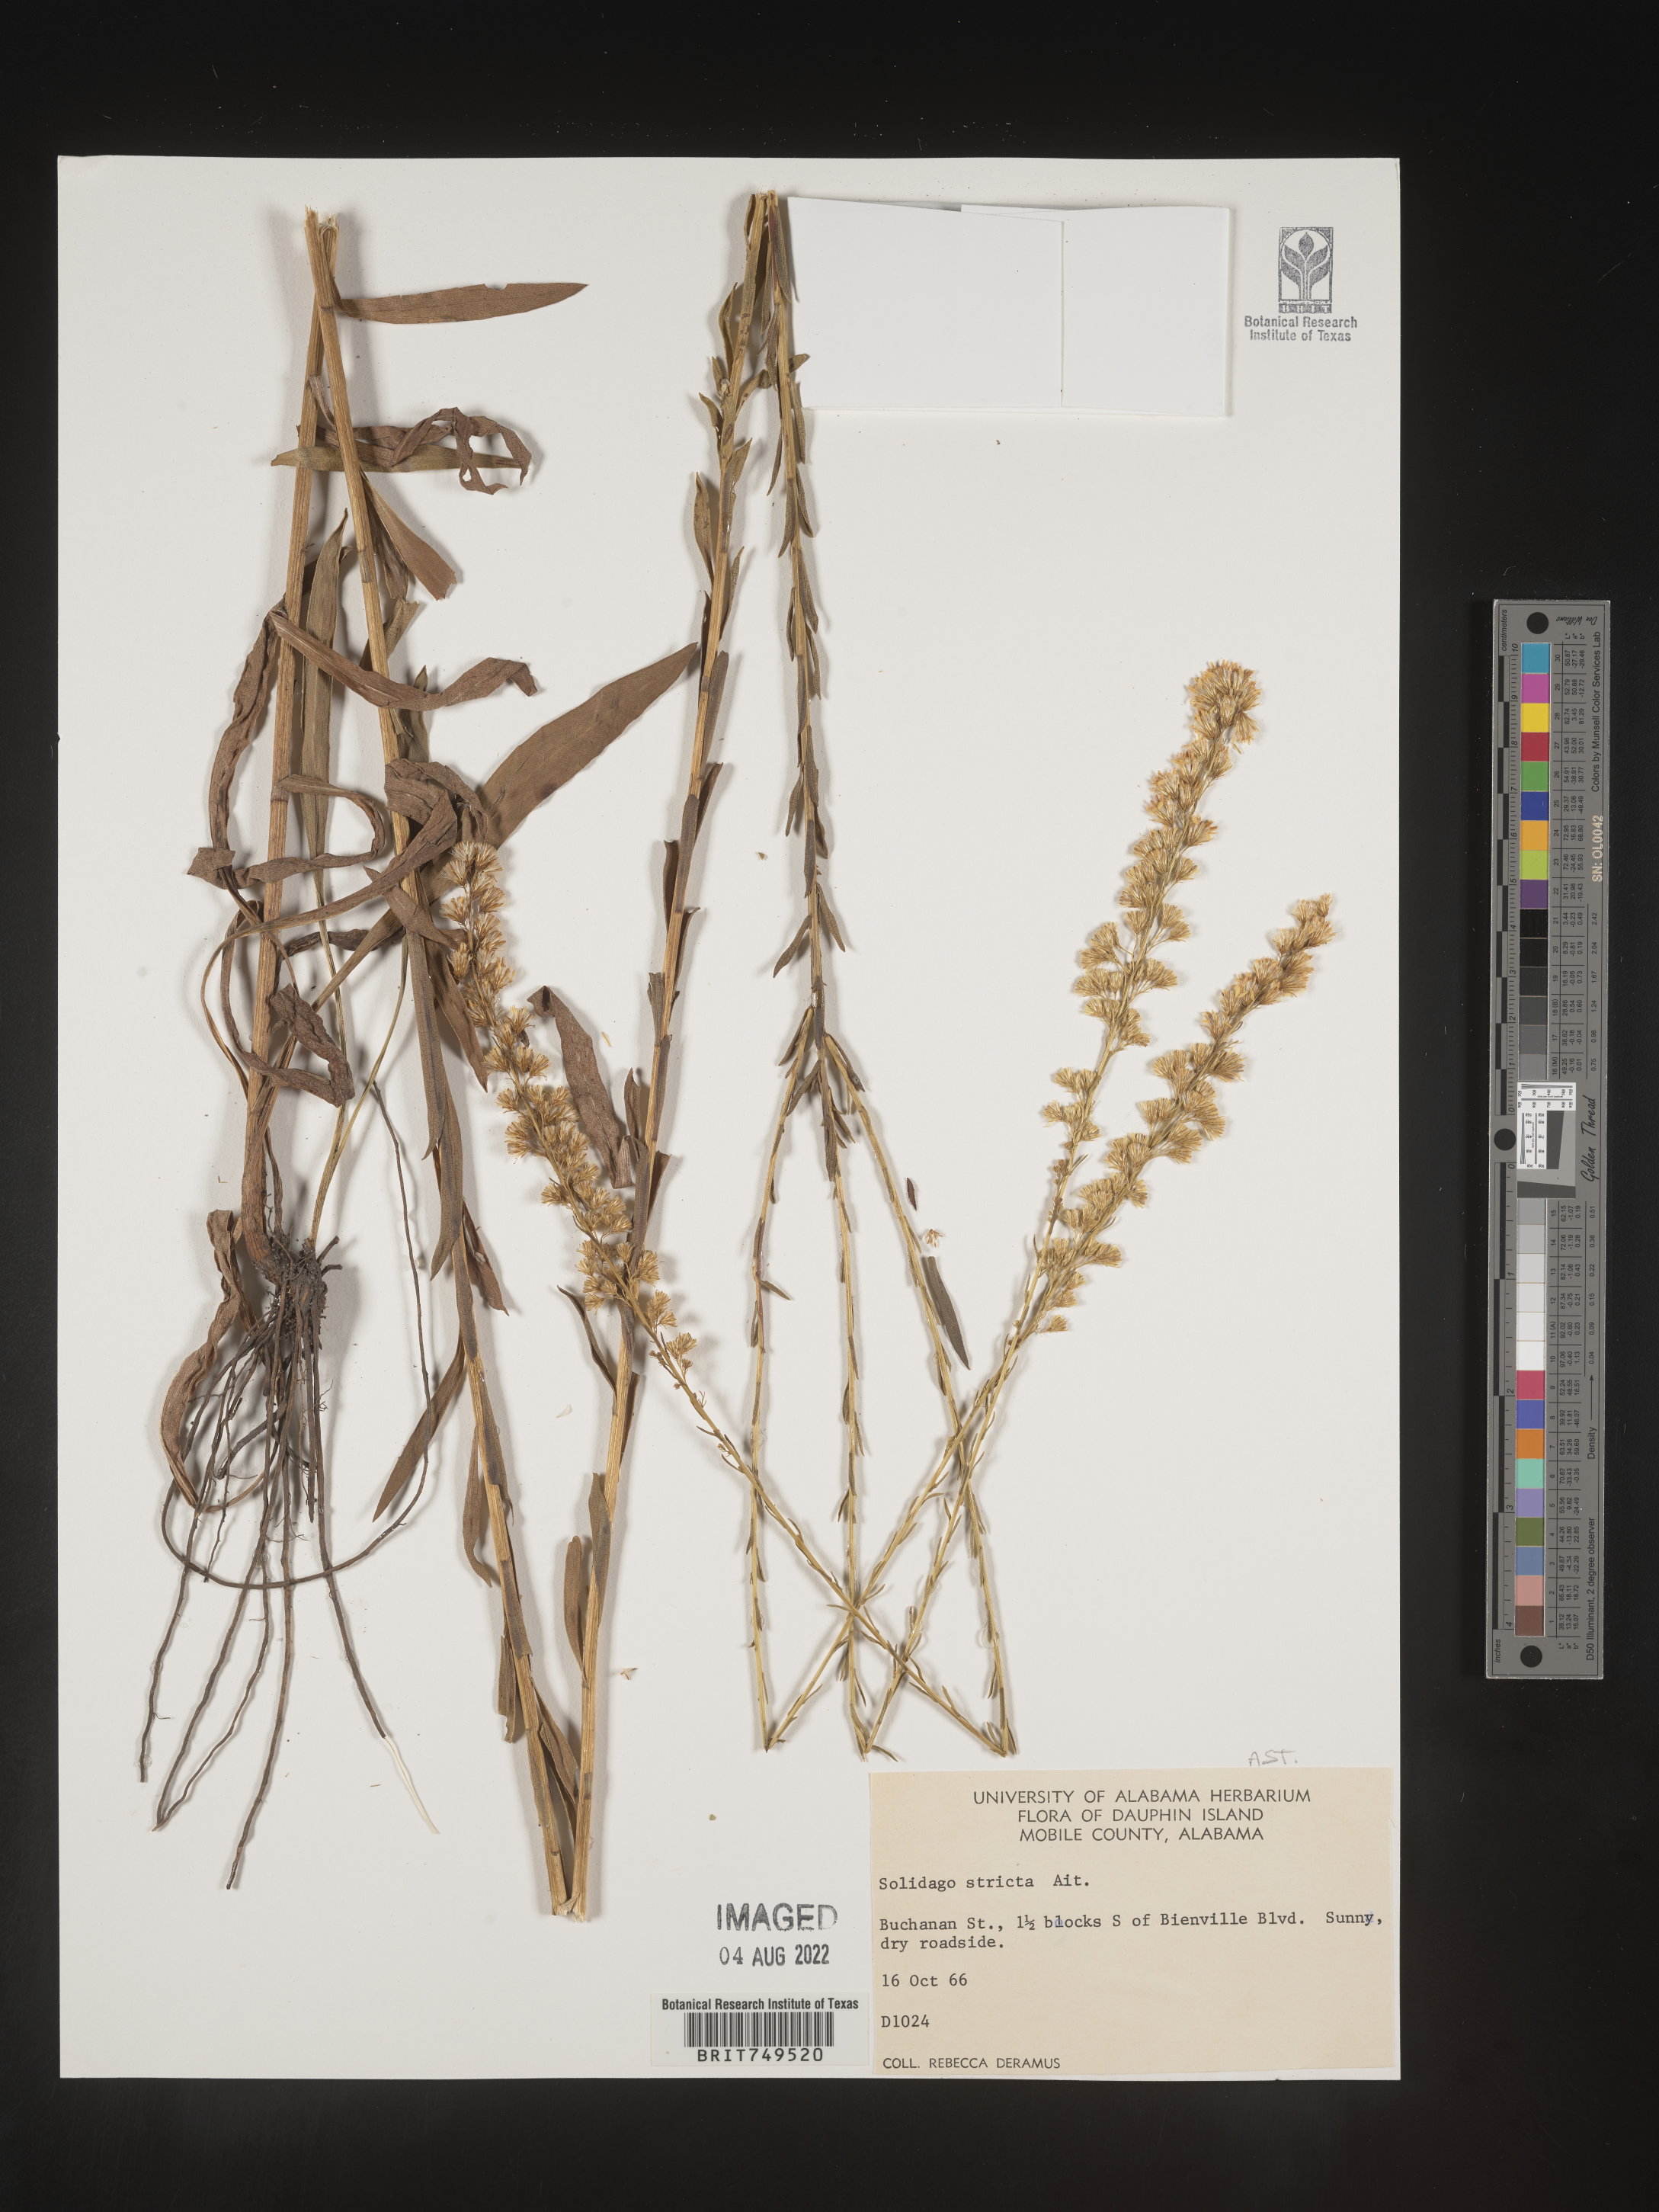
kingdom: Plantae
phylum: Tracheophyta
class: Magnoliopsida
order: Asterales
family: Asteraceae
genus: Solidago
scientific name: Solidago stricta
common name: Pine barren bog goldenrod
